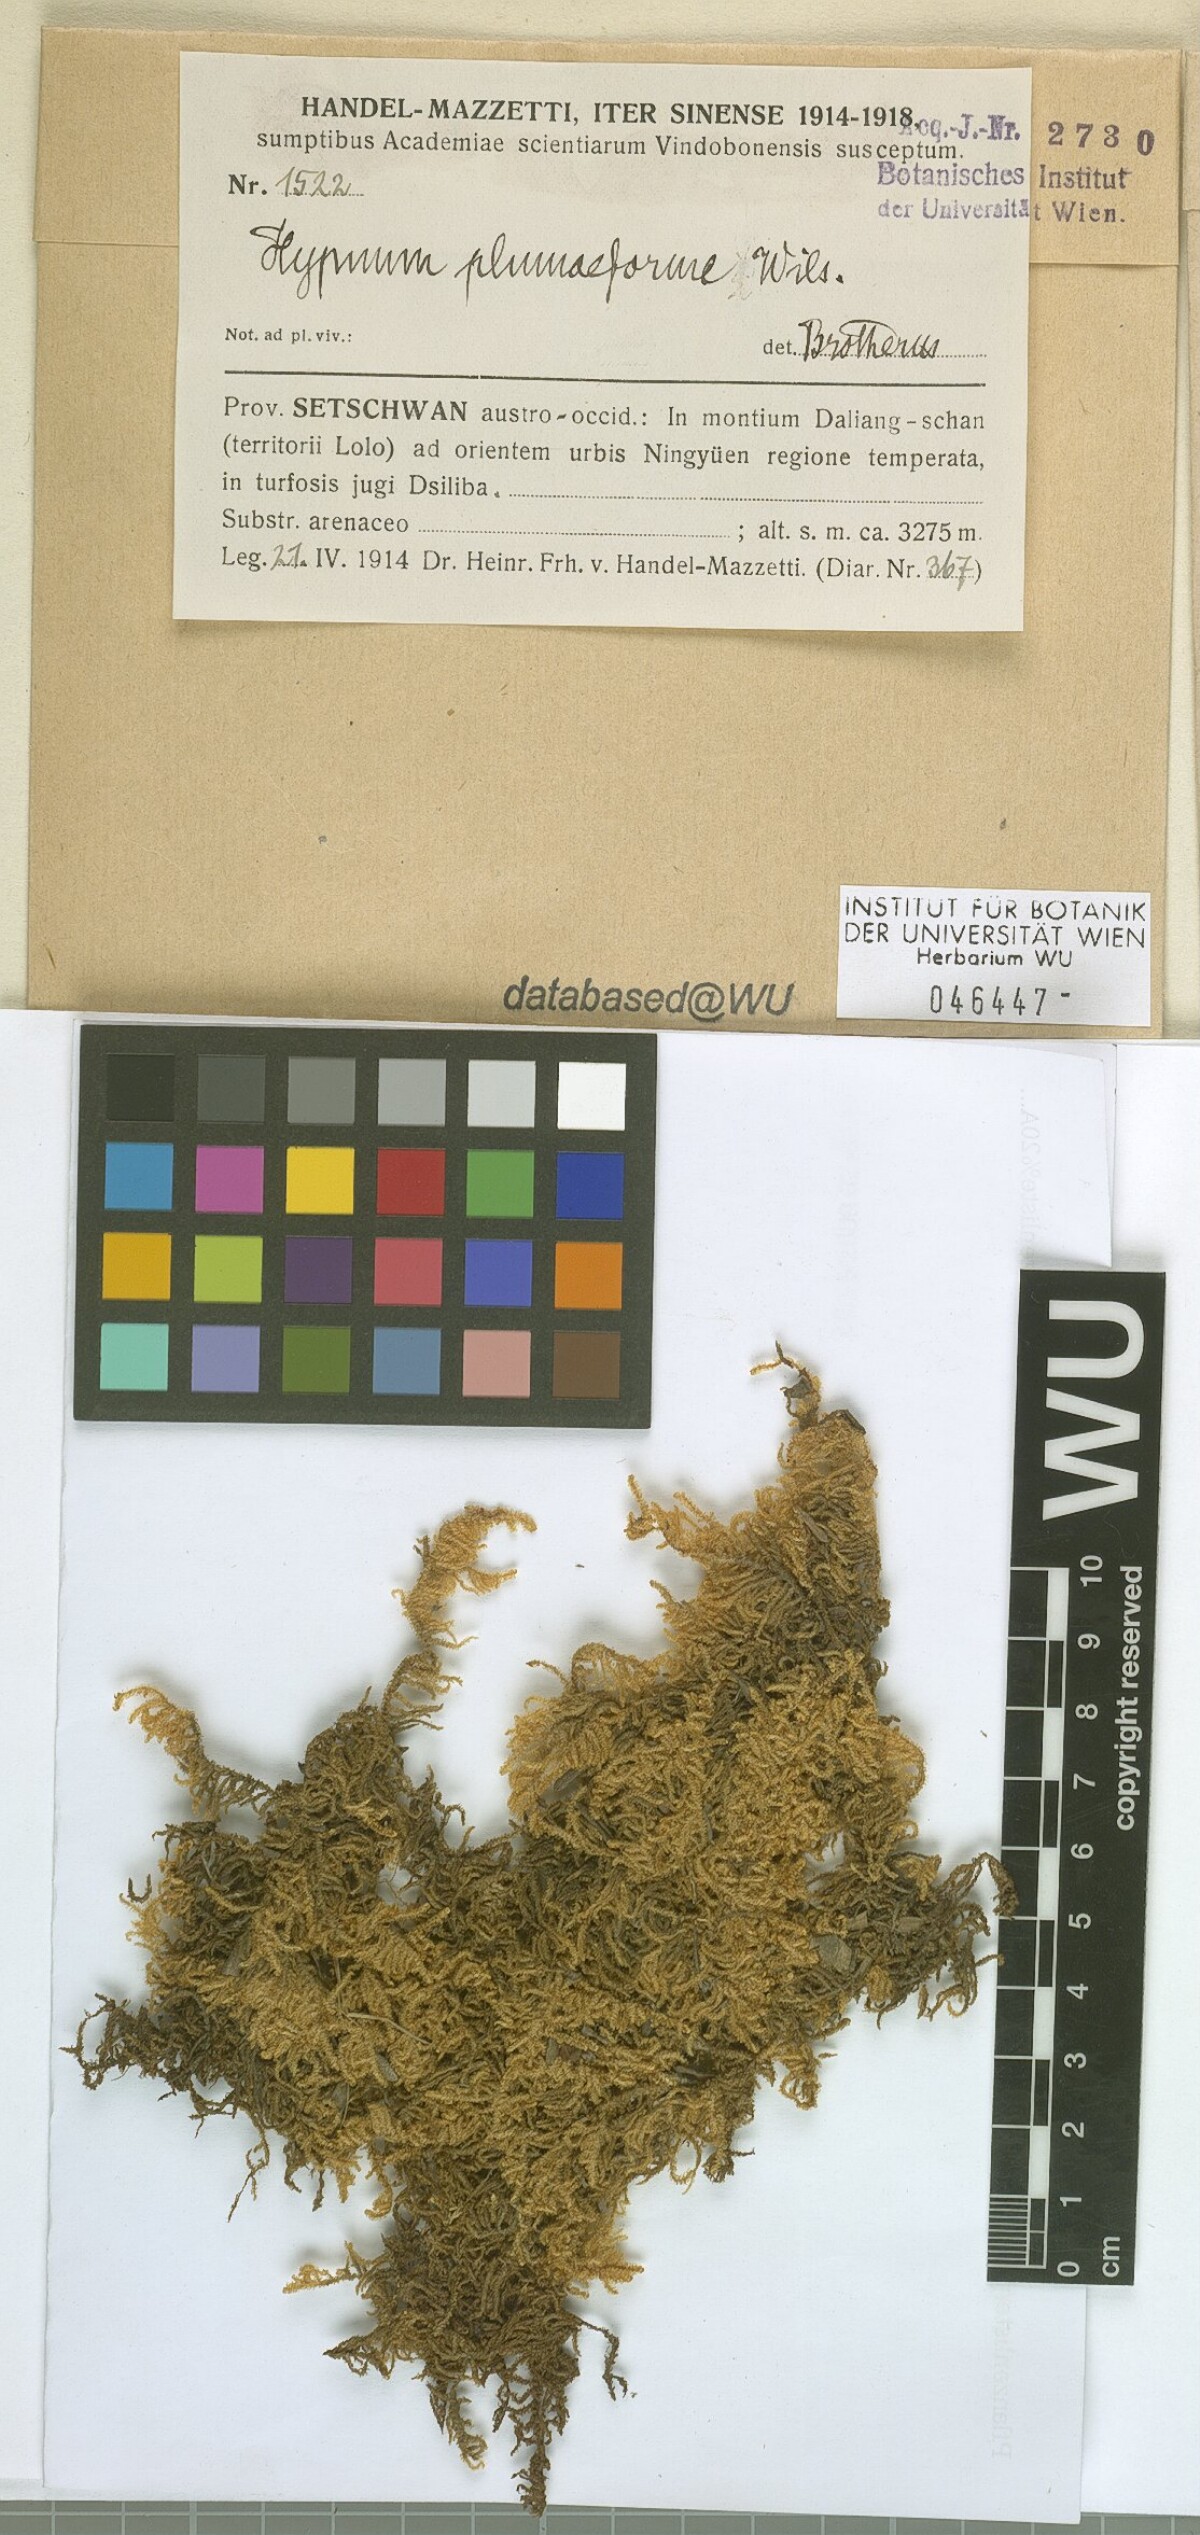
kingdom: Plantae
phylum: Bryophyta
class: Bryopsida
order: Hypnales
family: Hypnaceae
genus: Hypnum
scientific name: Hypnum plumaeforme
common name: Cypress-leaved plaitmoss
